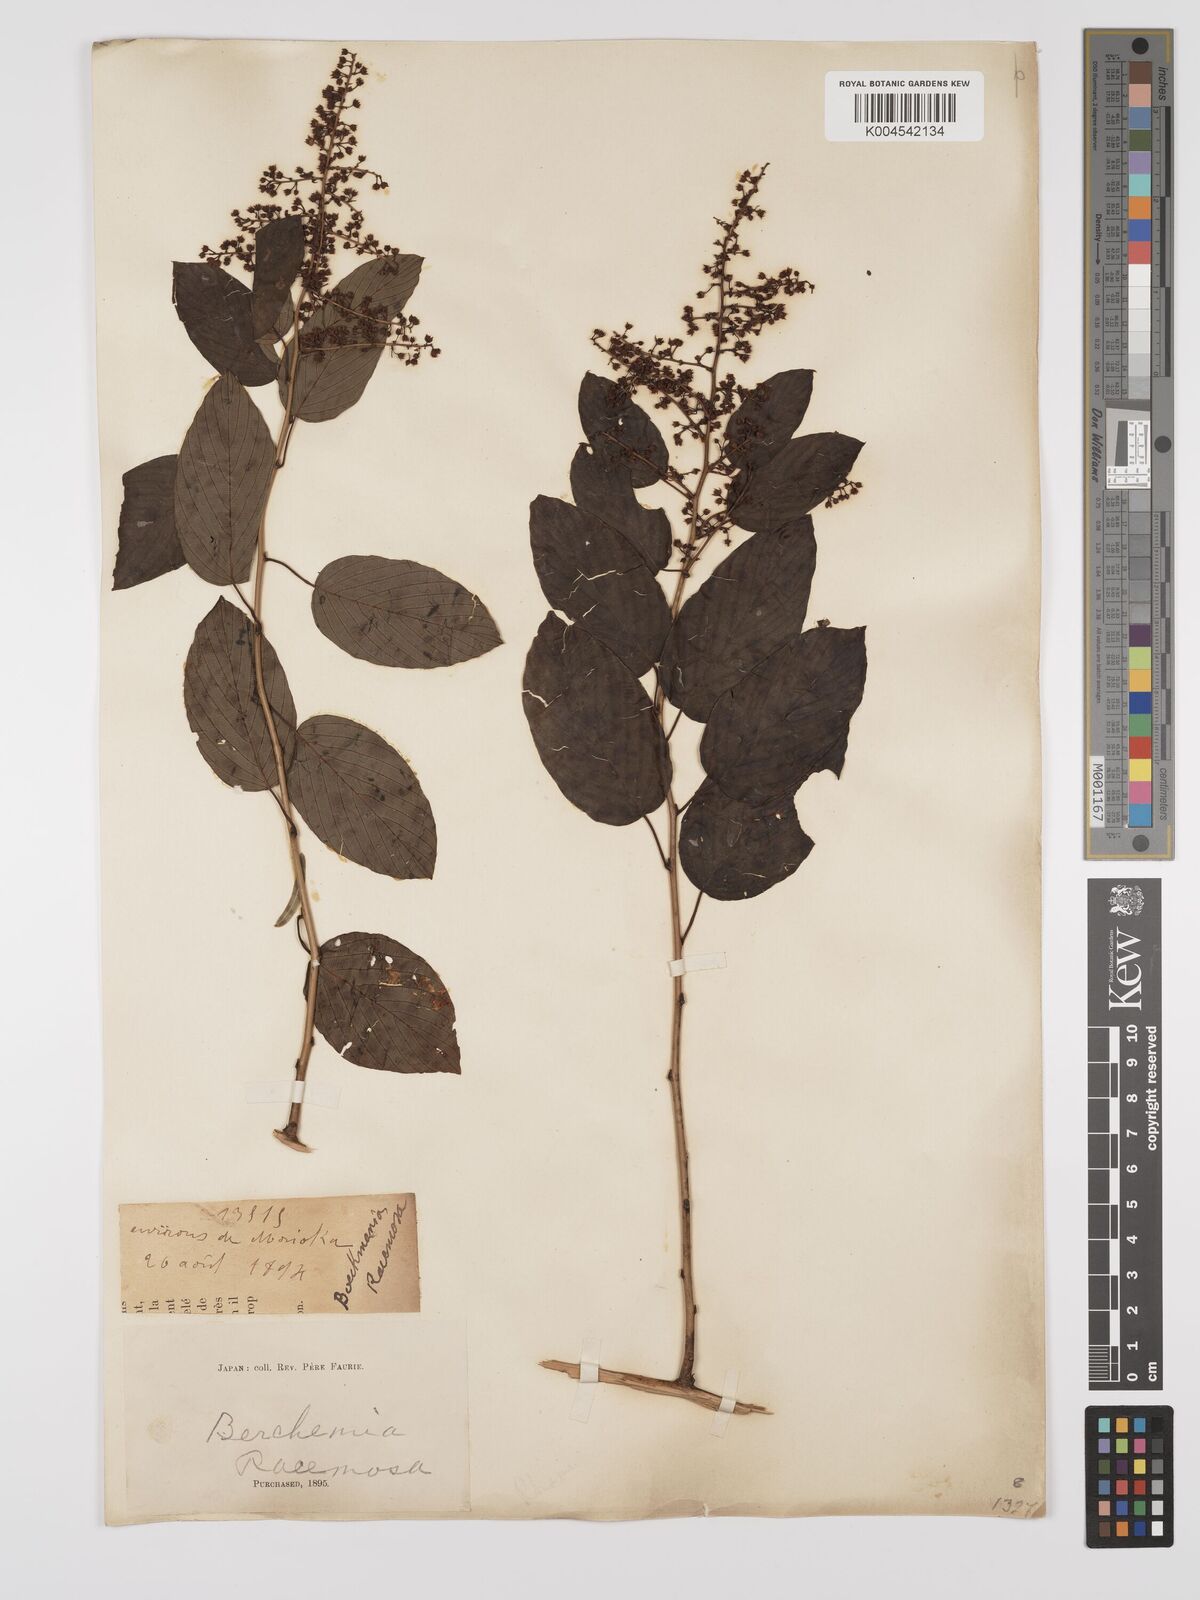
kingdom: Plantae
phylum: Tracheophyta
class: Magnoliopsida
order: Rosales
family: Rhamnaceae
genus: Berchemia
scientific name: Berchemia floribunda
